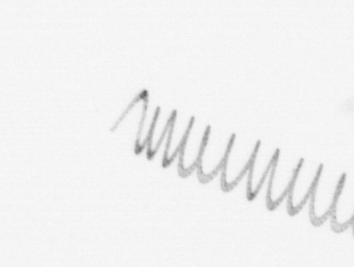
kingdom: Chromista
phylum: Ochrophyta
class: Bacillariophyceae
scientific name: Bacillariophyceae
